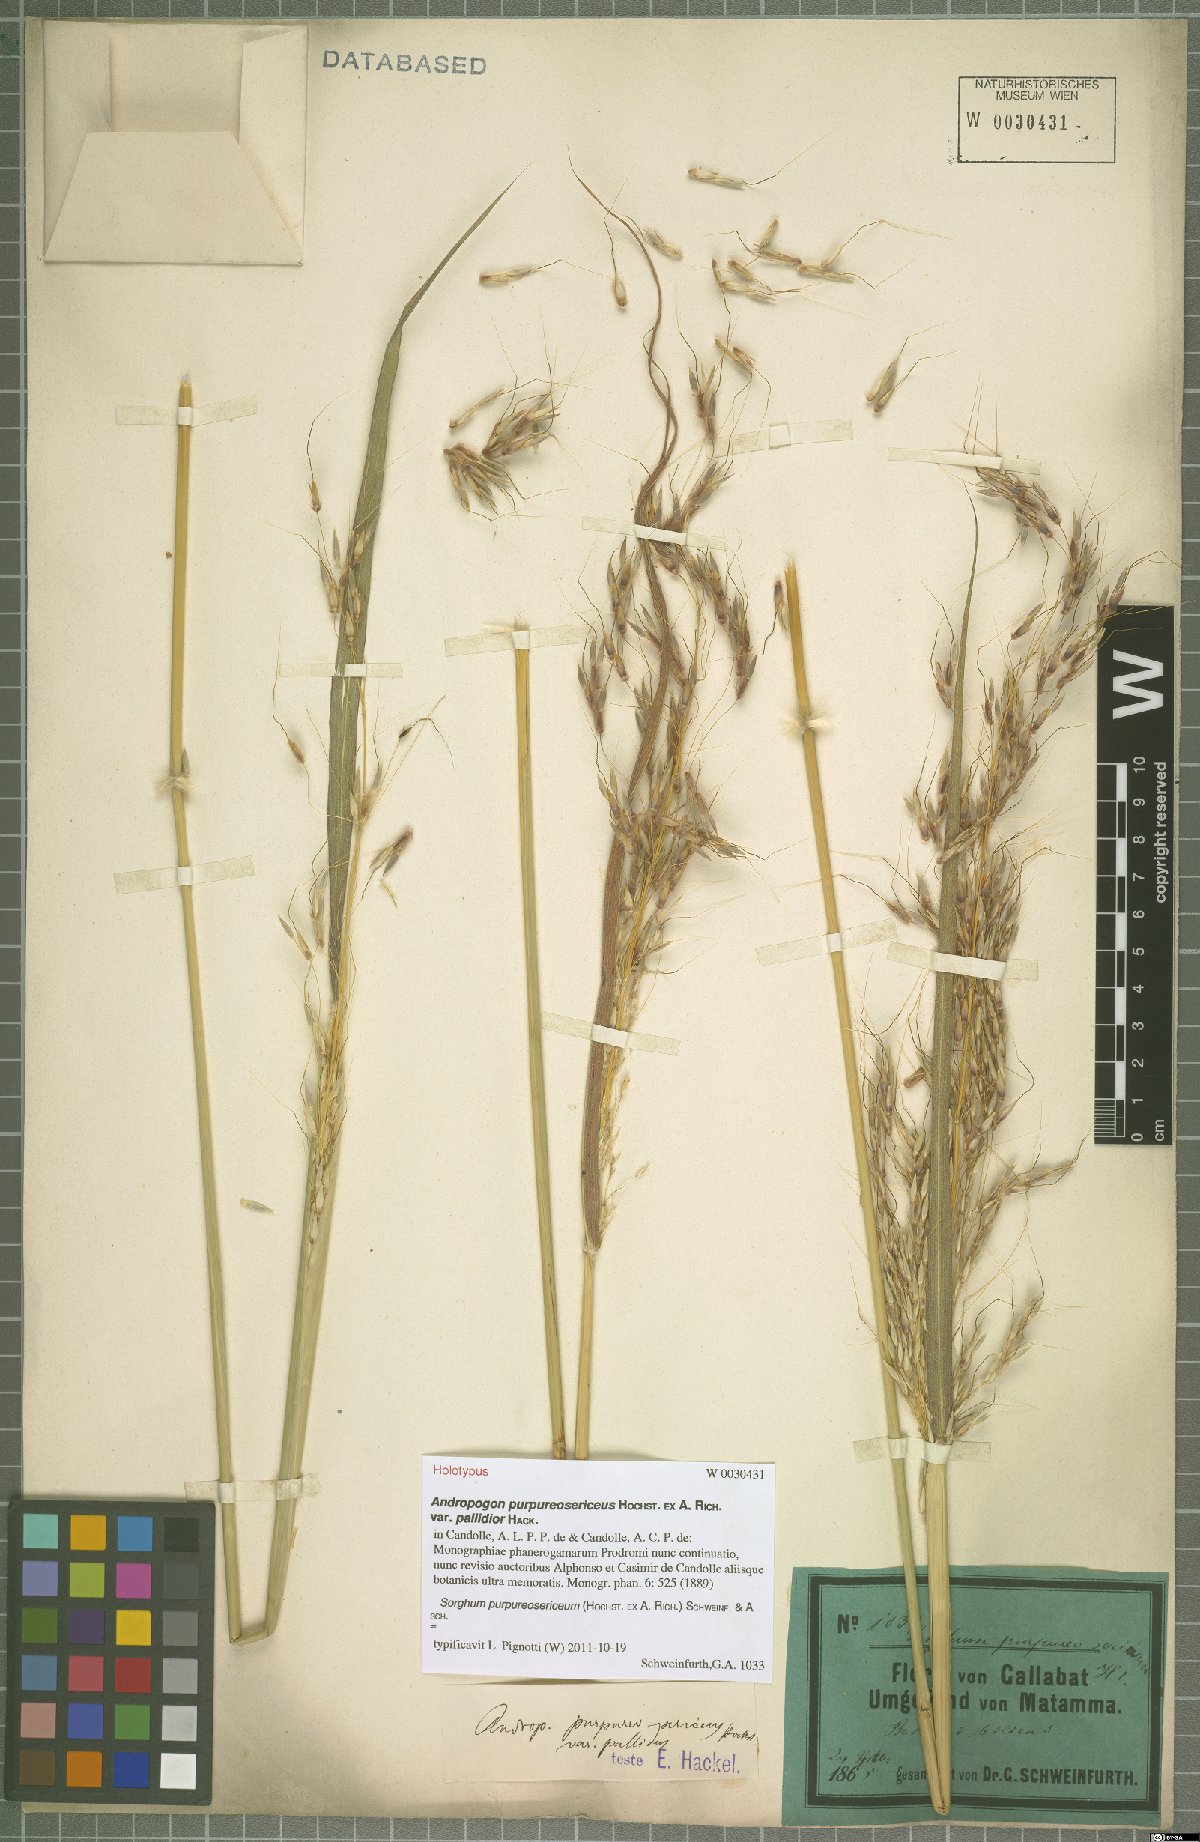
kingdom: Plantae
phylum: Tracheophyta
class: Liliopsida
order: Poales
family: Poaceae
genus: Sarga
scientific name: Sarga purpureosericea
